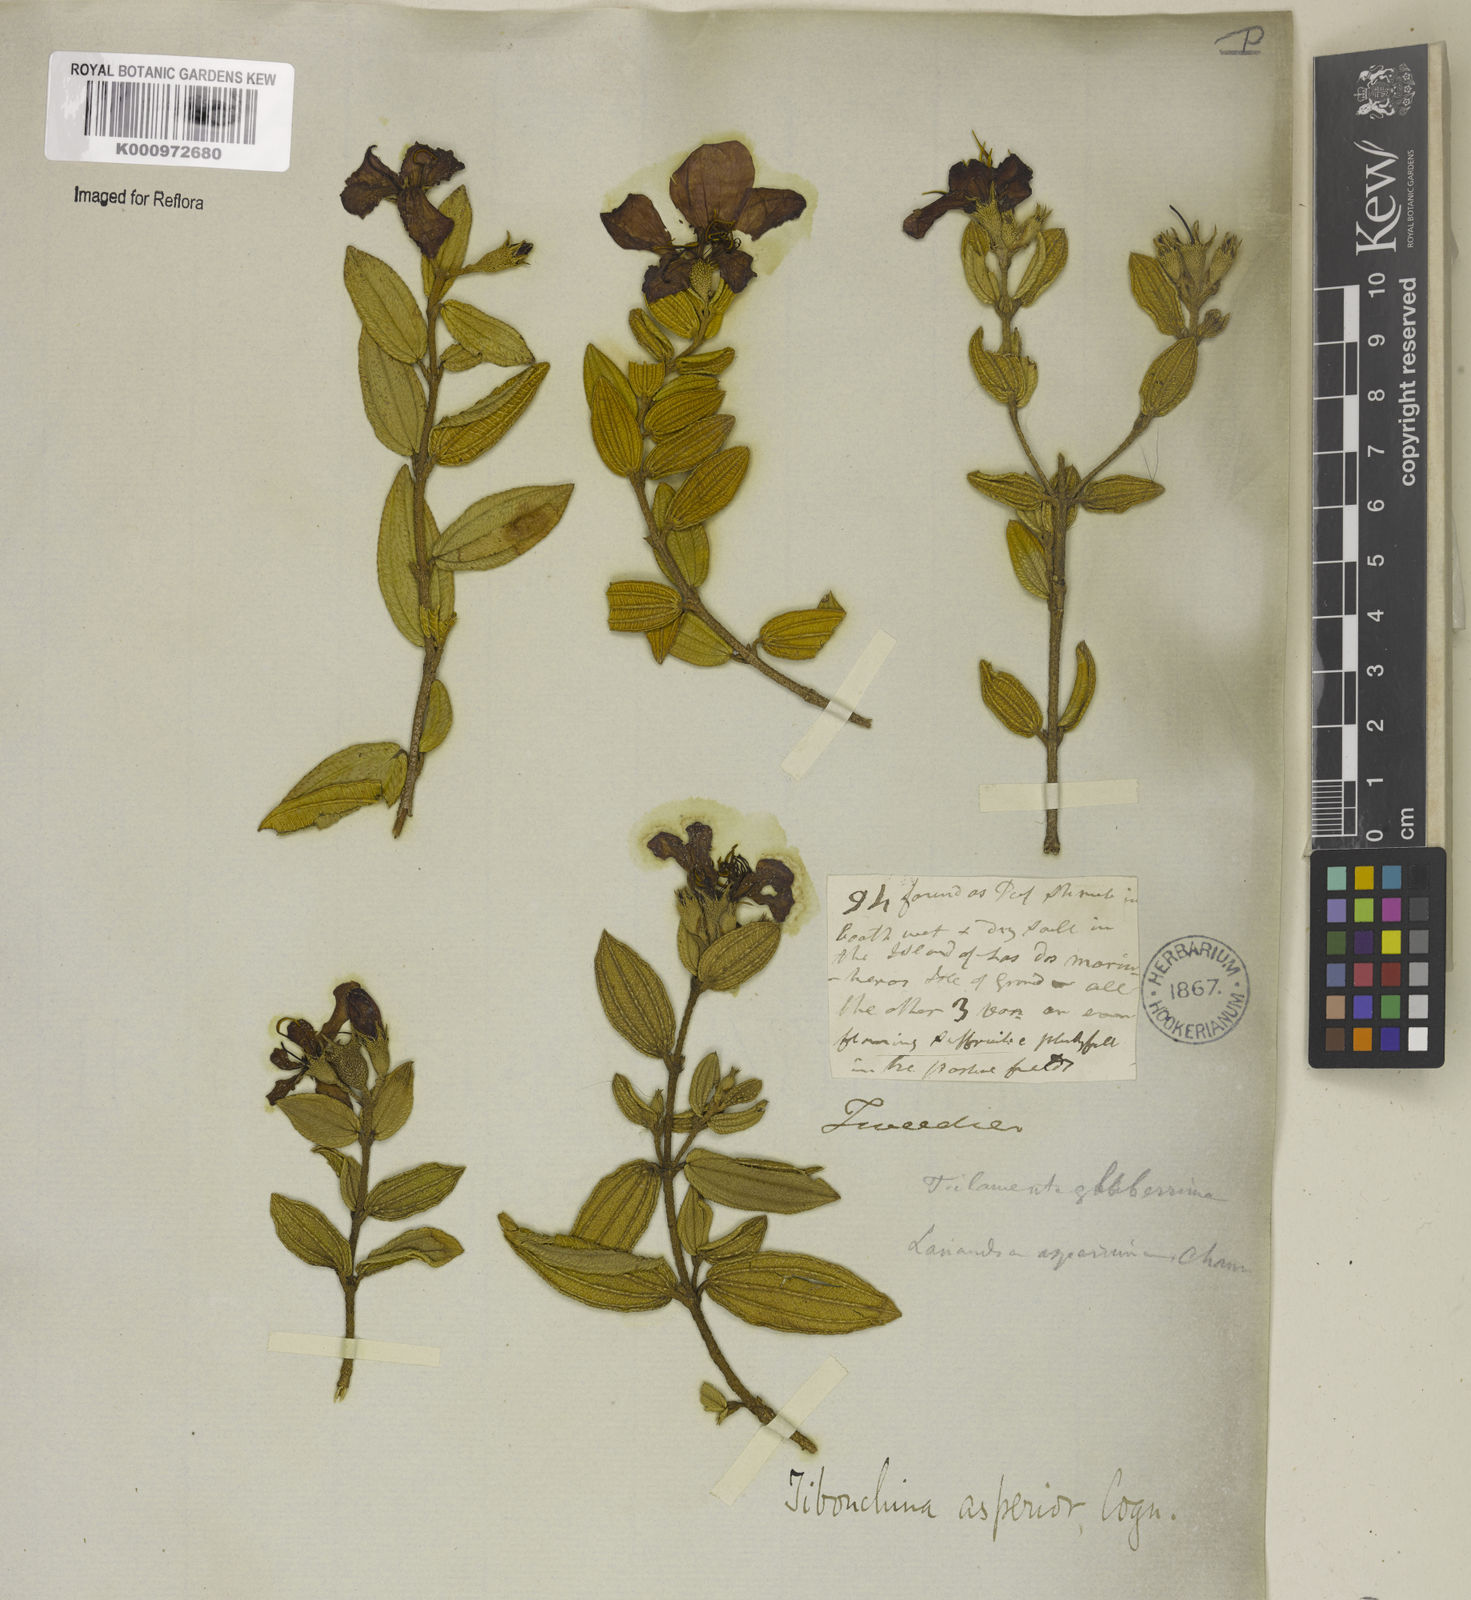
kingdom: Plantae
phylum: Tracheophyta
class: Magnoliopsida
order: Myrtales
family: Melastomataceae
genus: Pleroma
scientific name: Pleroma asperius
